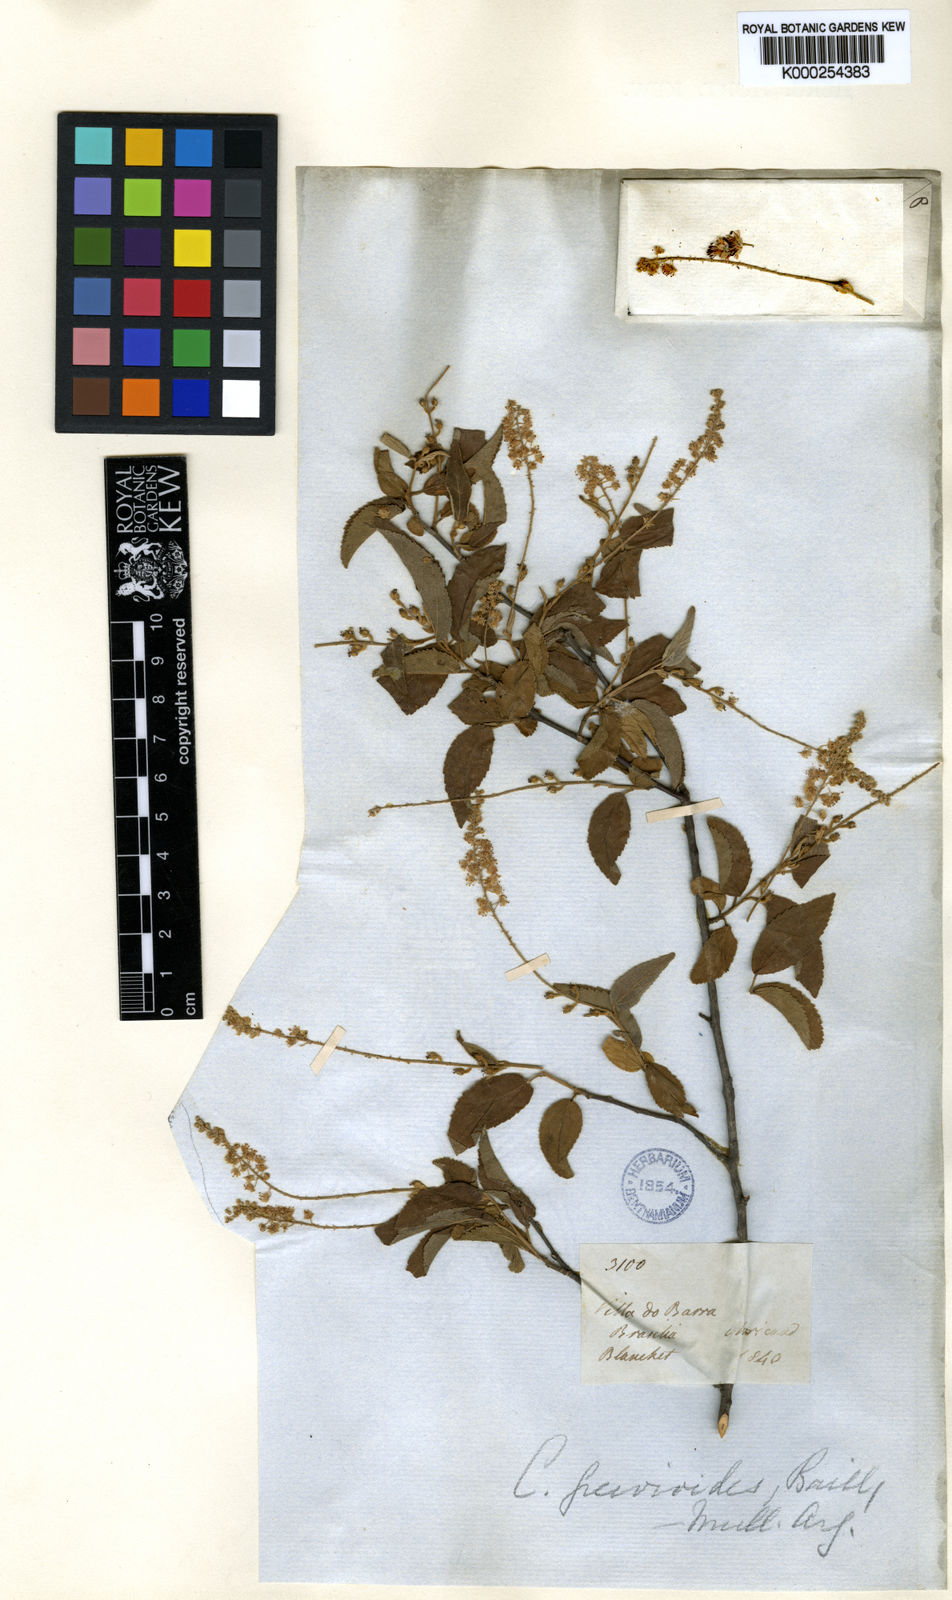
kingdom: Plantae
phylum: Tracheophyta
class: Magnoliopsida
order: Malpighiales
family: Euphorbiaceae
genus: Croton
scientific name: Croton grewioides
